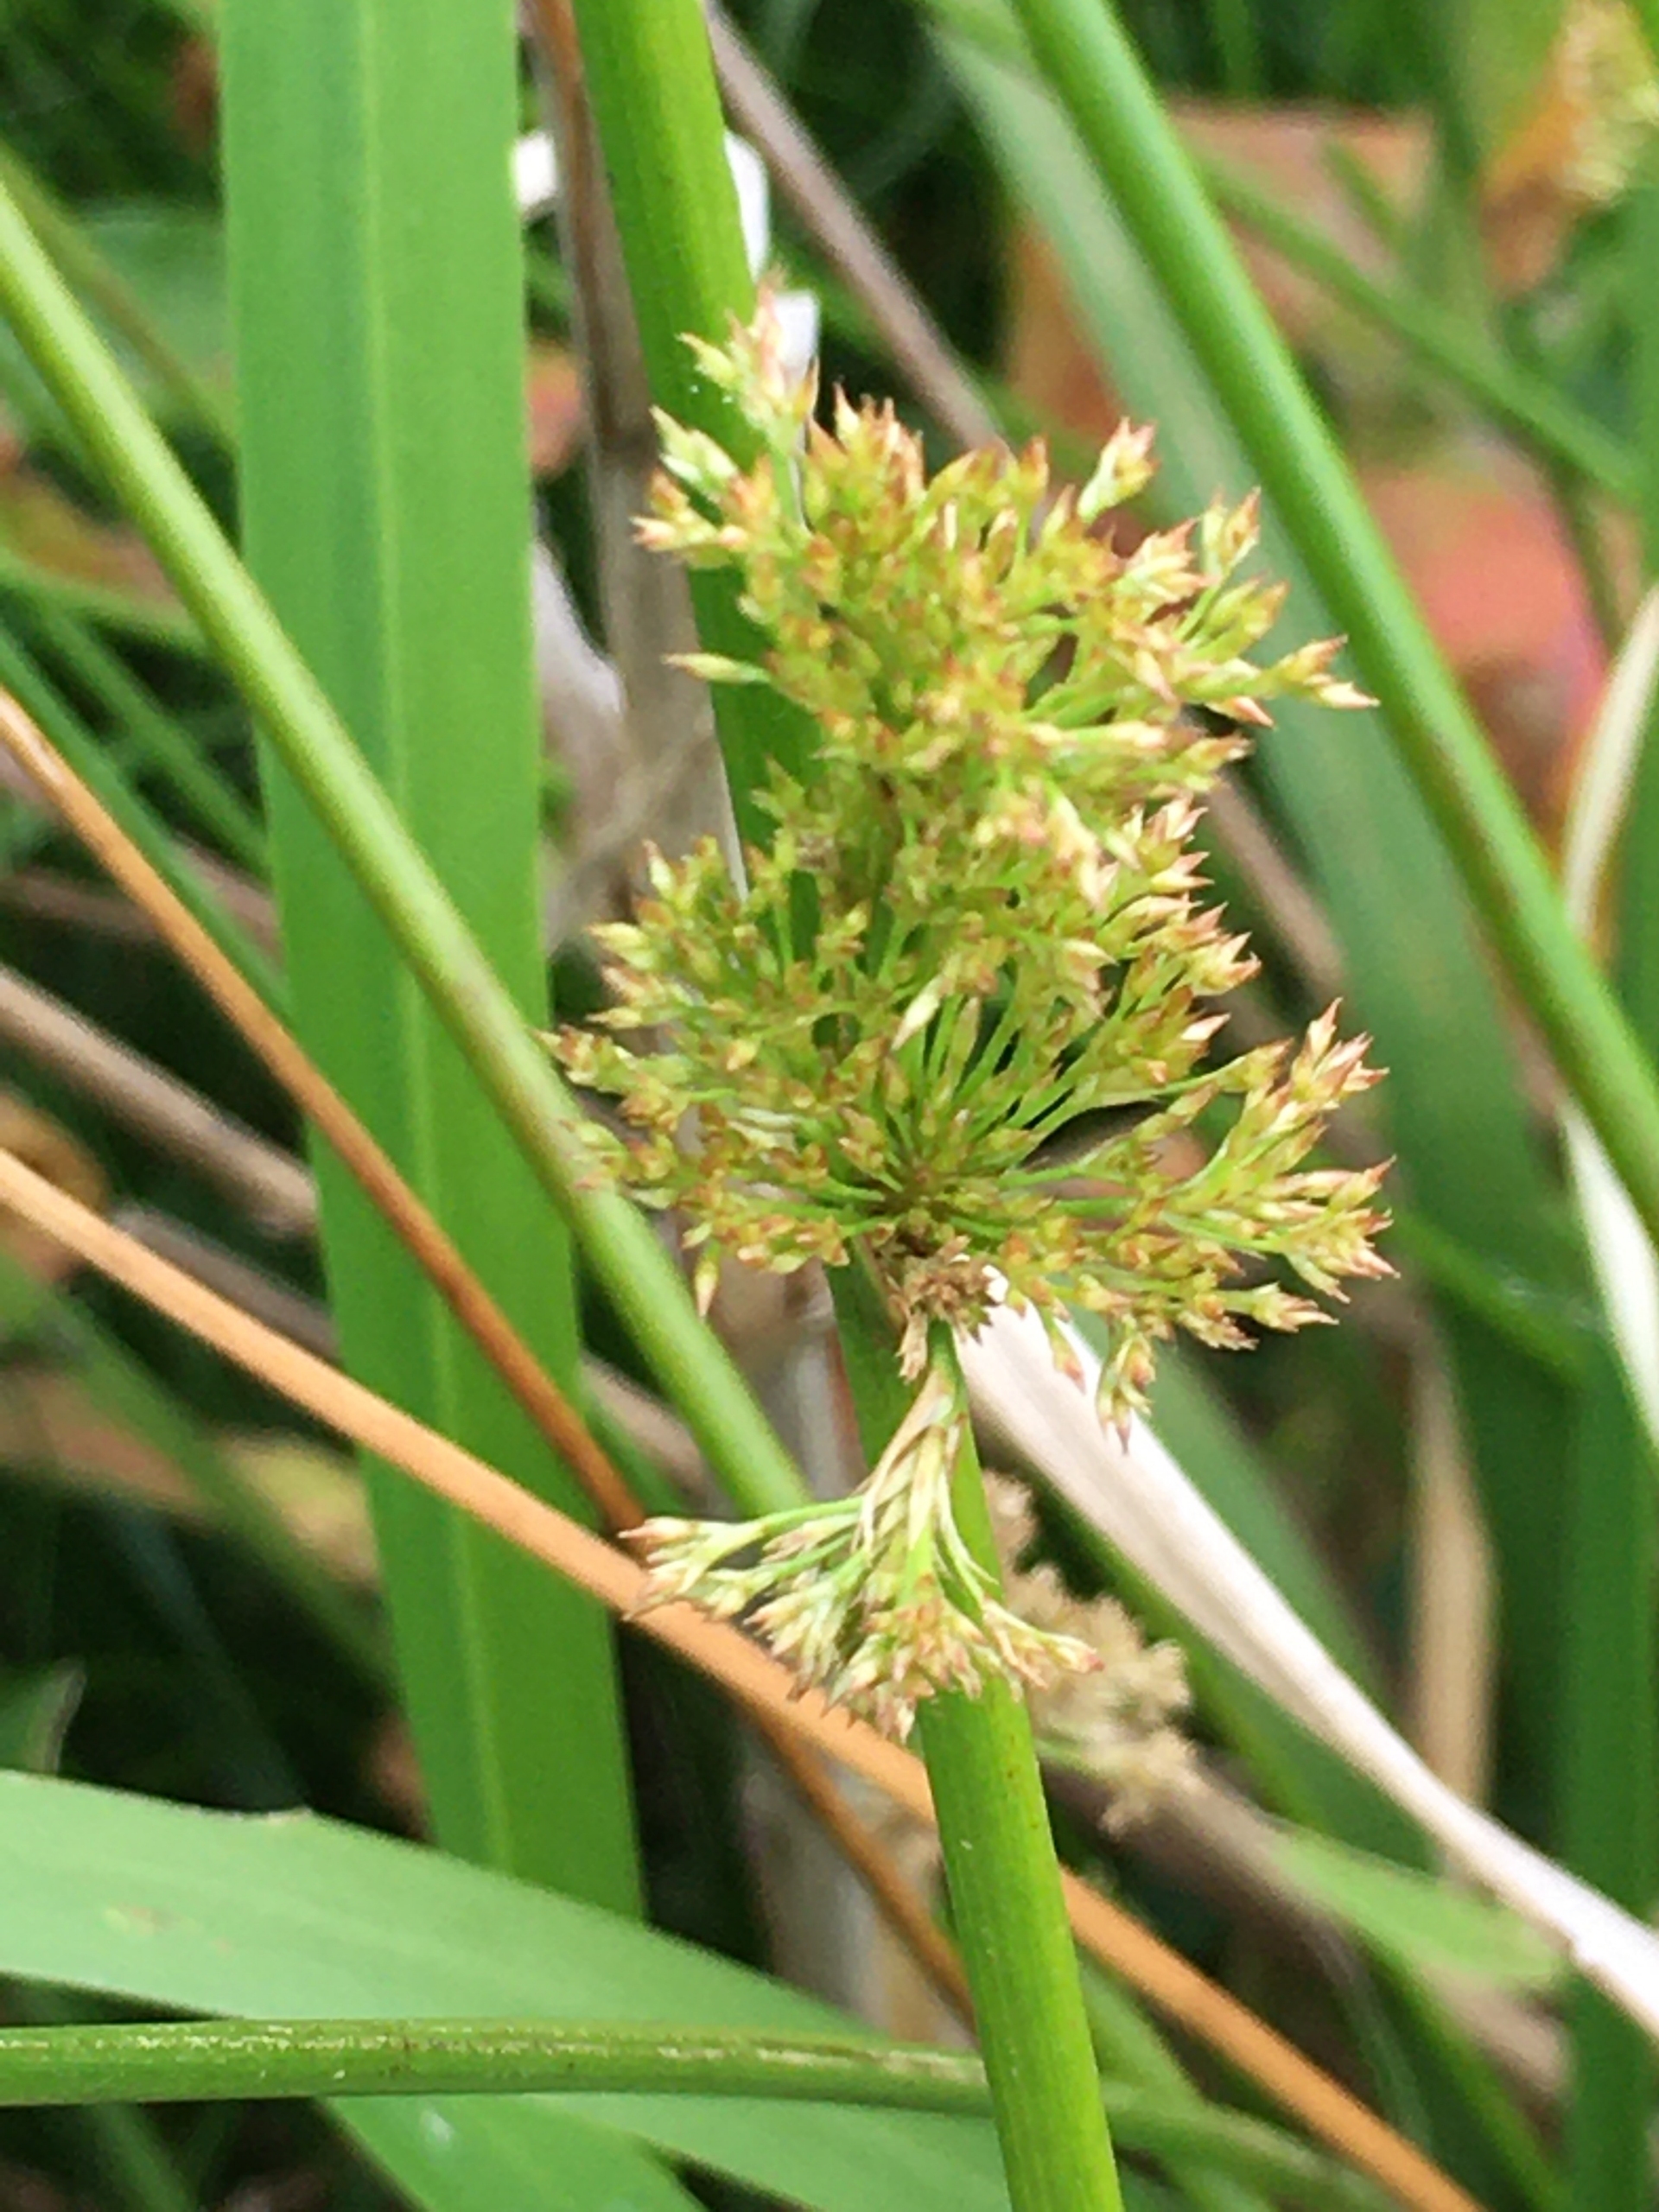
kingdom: Plantae
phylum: Tracheophyta
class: Liliopsida
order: Poales
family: Juncaceae
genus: Juncus
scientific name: Juncus effusus
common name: Lyse-siv
